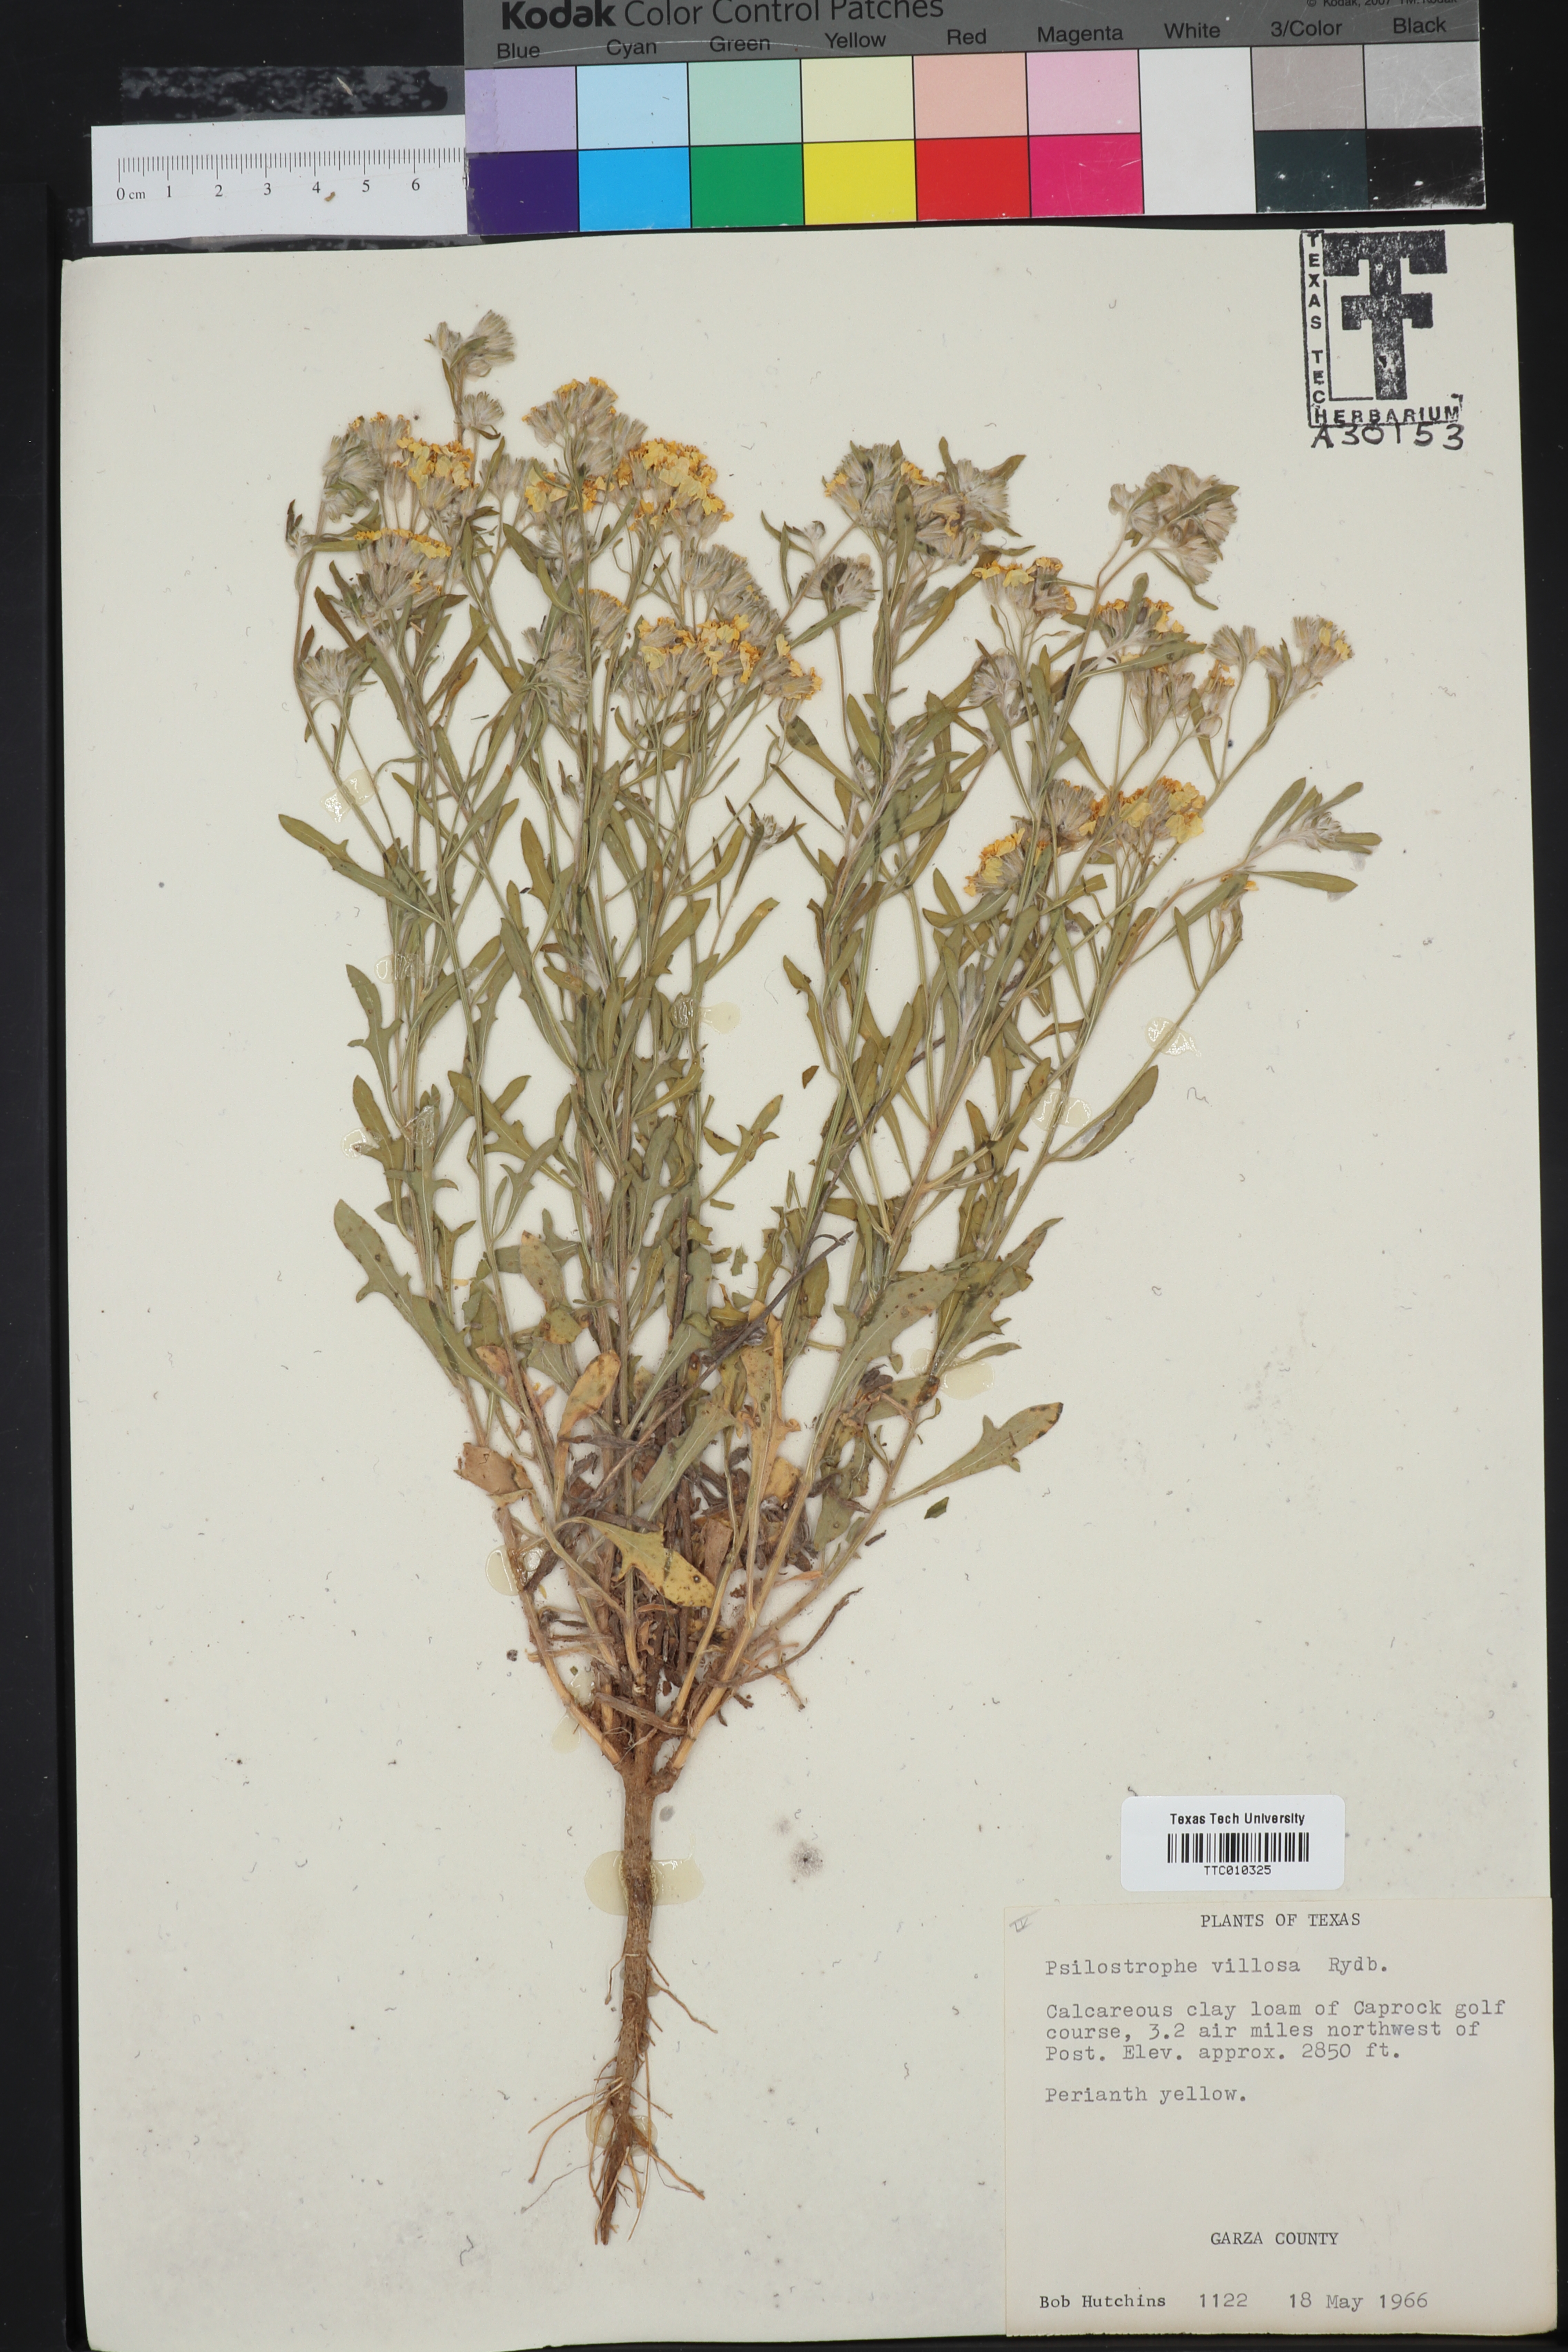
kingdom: Plantae
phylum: Tracheophyta
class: Magnoliopsida
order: Asterales
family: Asteraceae
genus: Psilostrophe
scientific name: Psilostrophe villosa
